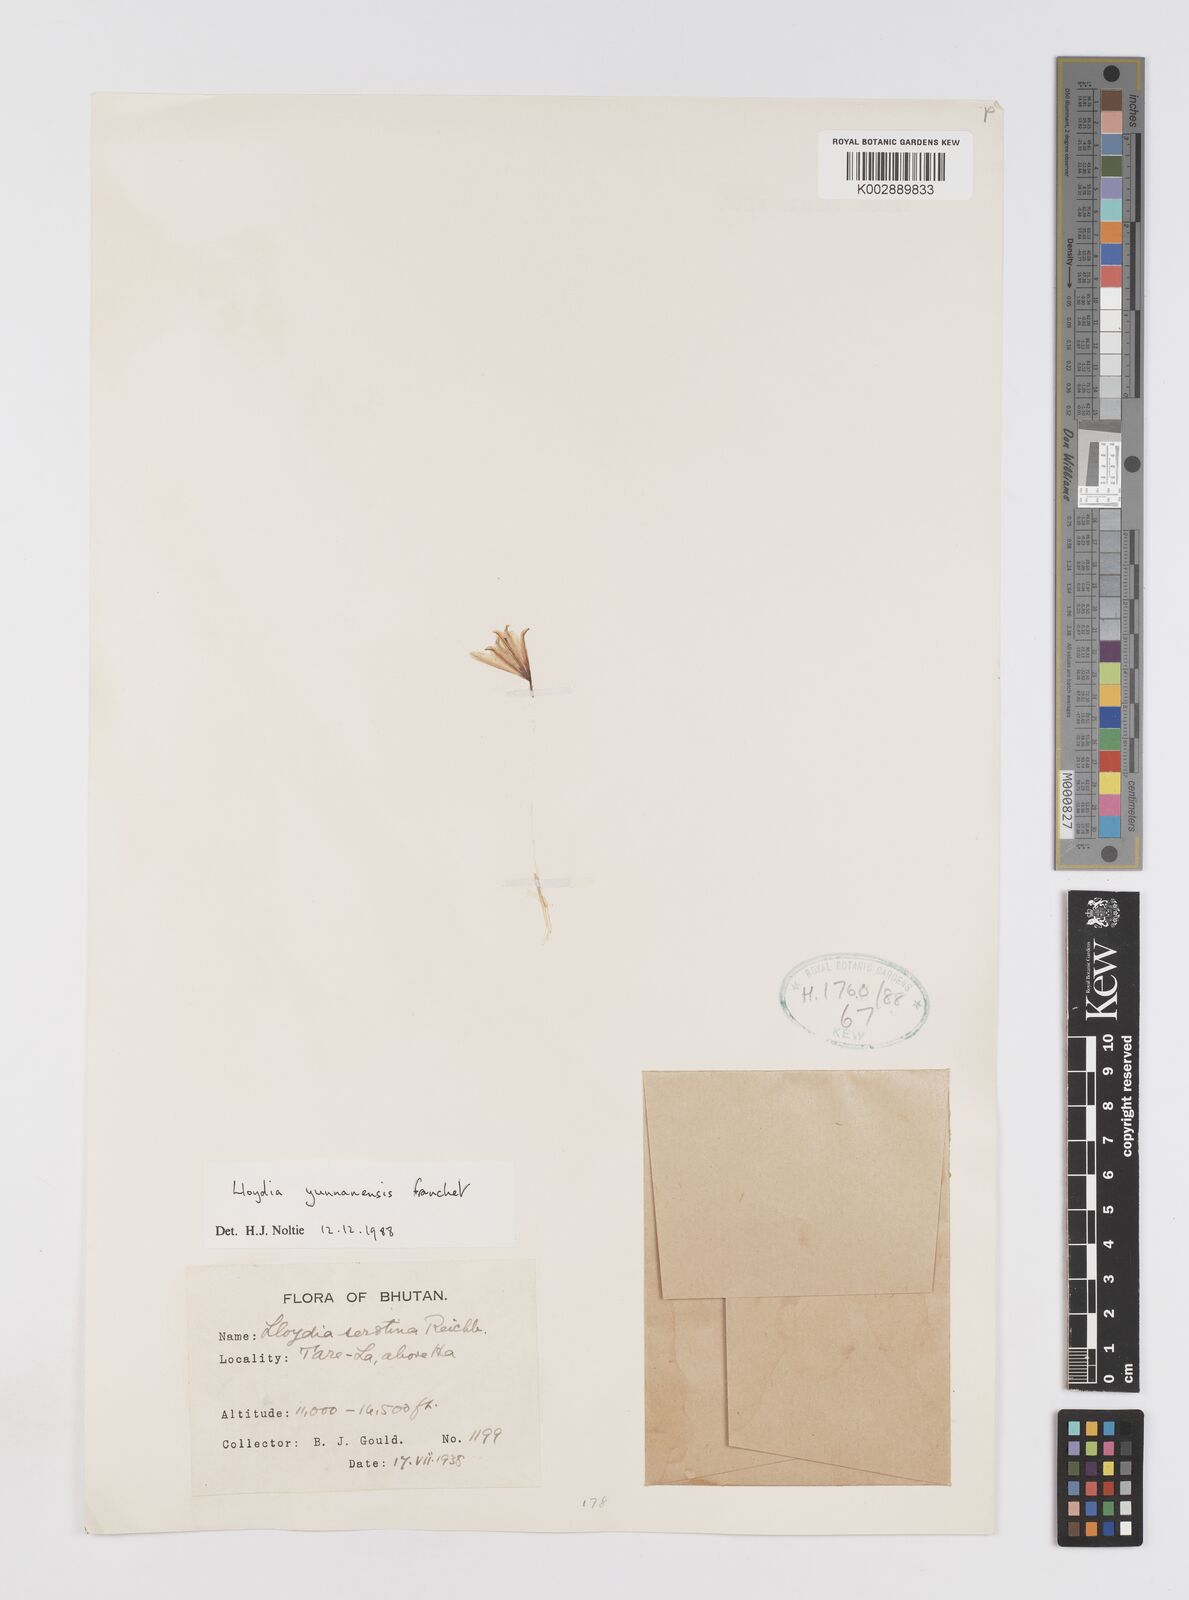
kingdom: Plantae
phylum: Tracheophyta
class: Liliopsida
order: Liliales
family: Liliaceae
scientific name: Liliaceae
